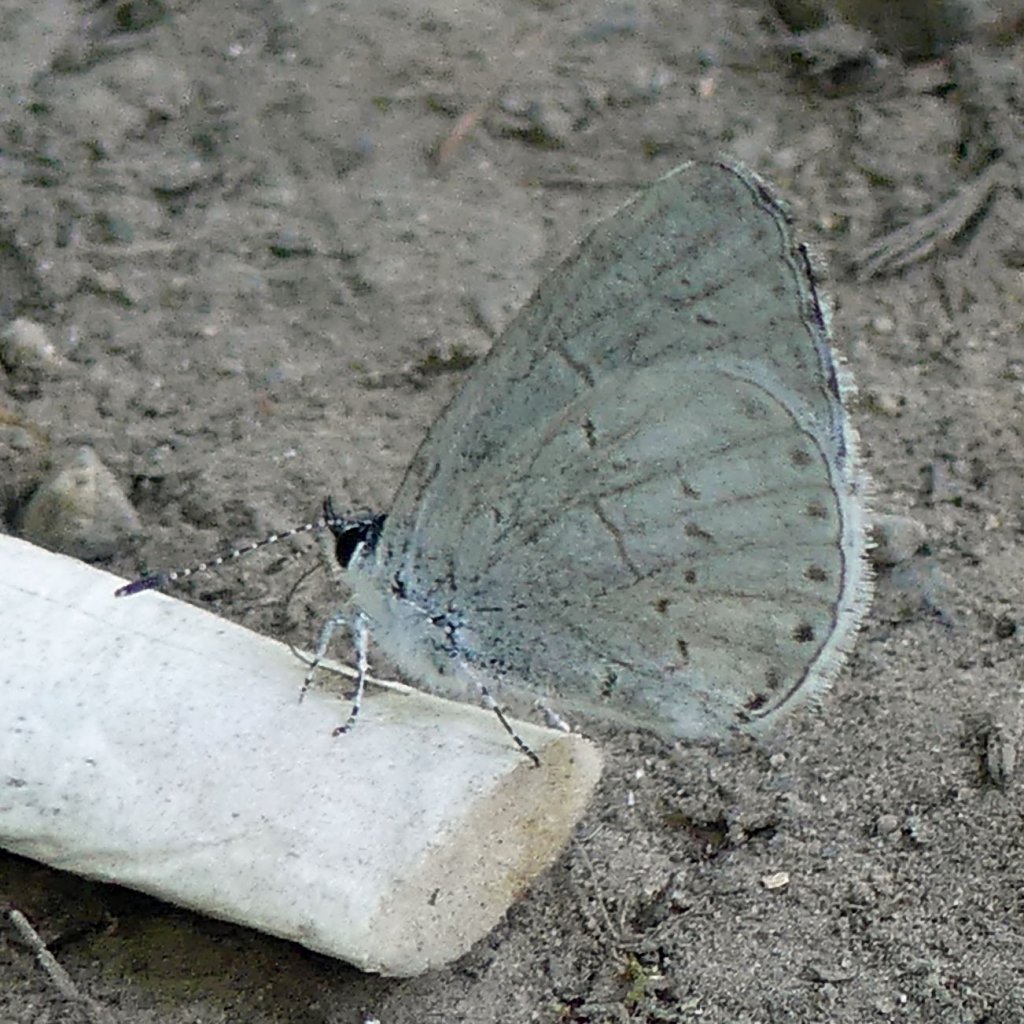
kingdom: Animalia
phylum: Arthropoda
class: Insecta
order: Lepidoptera
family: Lycaenidae
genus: Celastrina
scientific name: Celastrina
